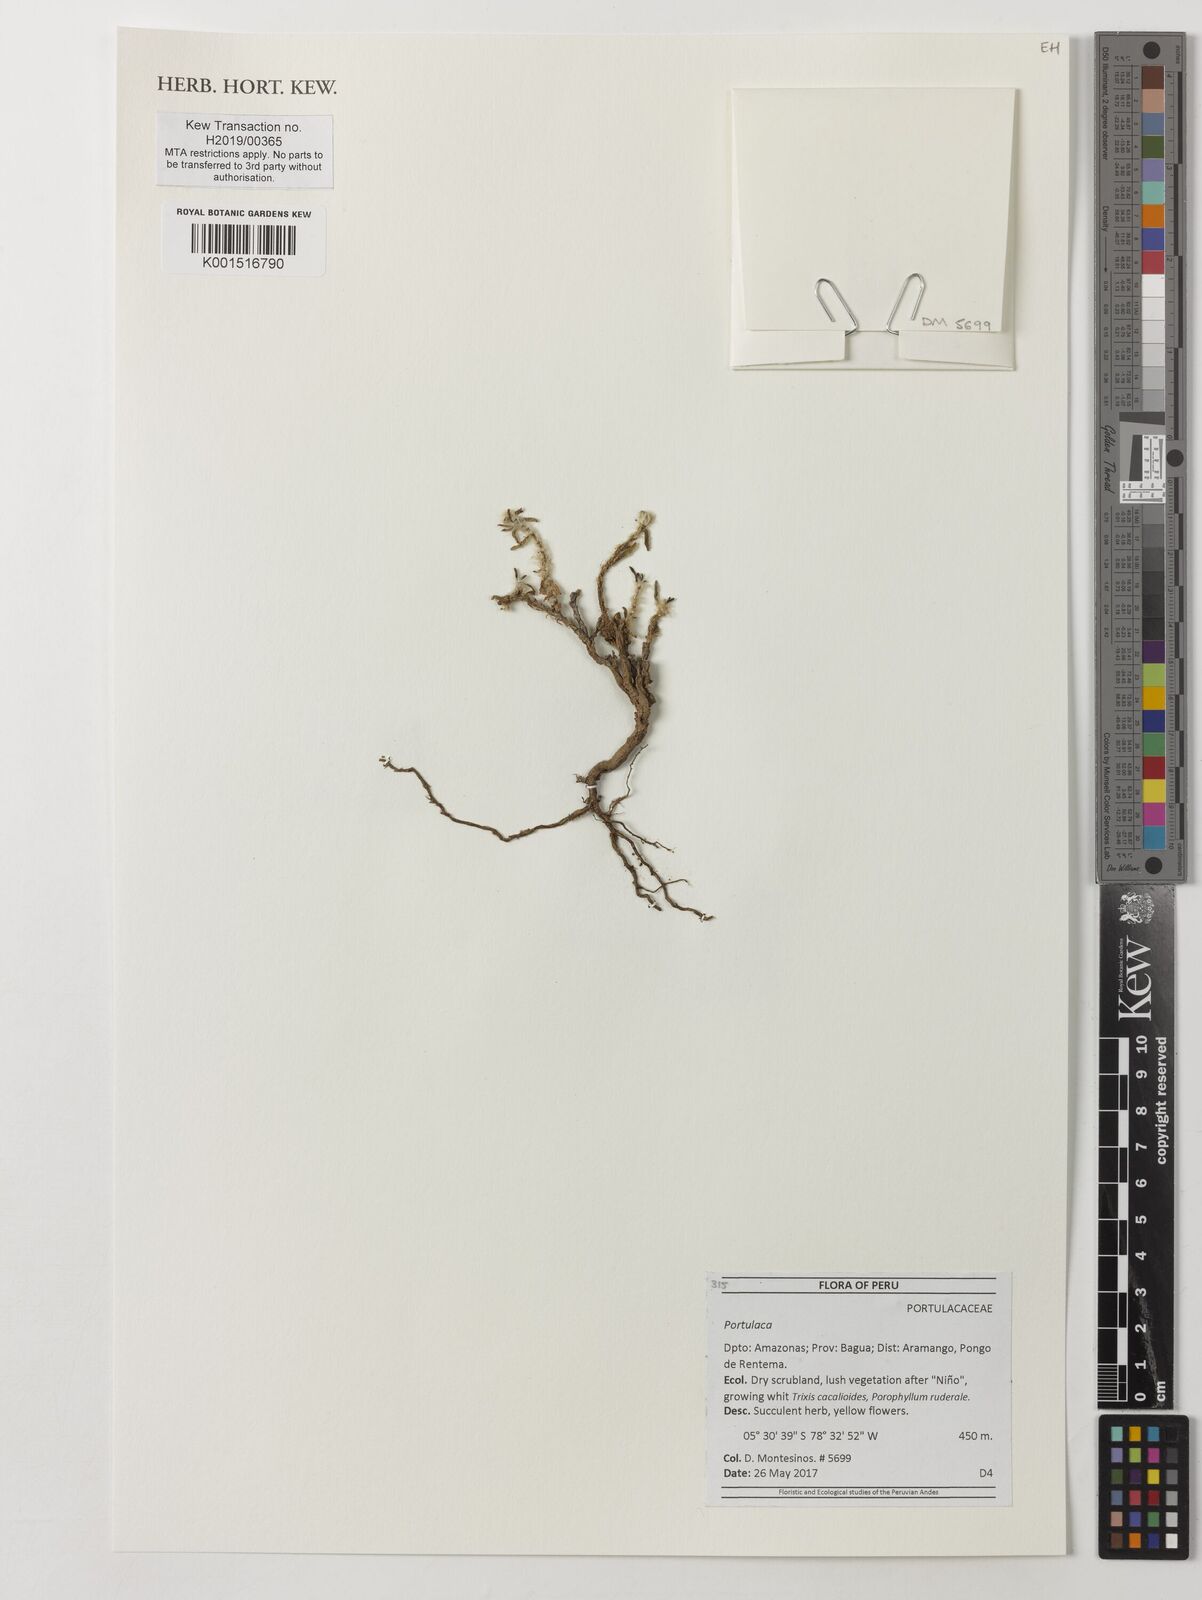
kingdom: Plantae
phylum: Tracheophyta
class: Magnoliopsida
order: Caryophyllales
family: Portulacaceae
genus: Portulaca
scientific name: Portulaca
